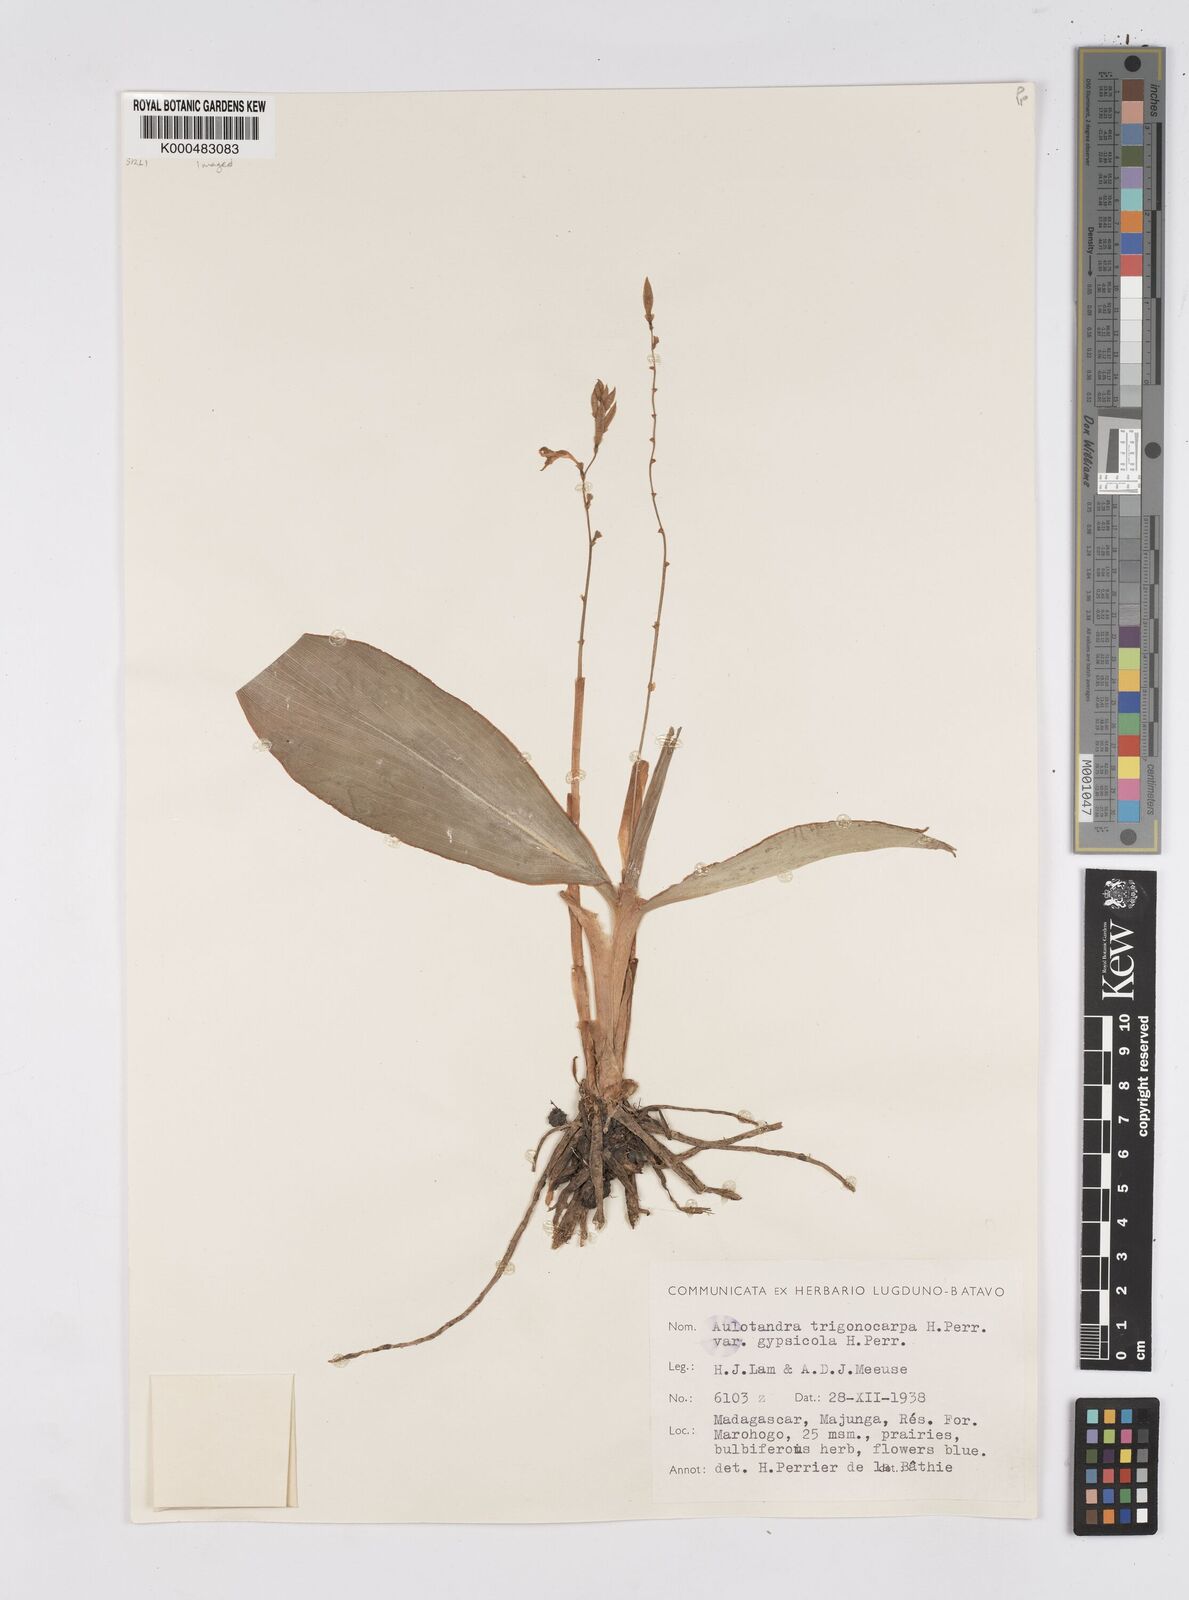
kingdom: Plantae
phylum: Tracheophyta
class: Liliopsida
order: Zingiberales
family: Zingiberaceae
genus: Aulotandra
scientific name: Aulotandra trigonocarpa
